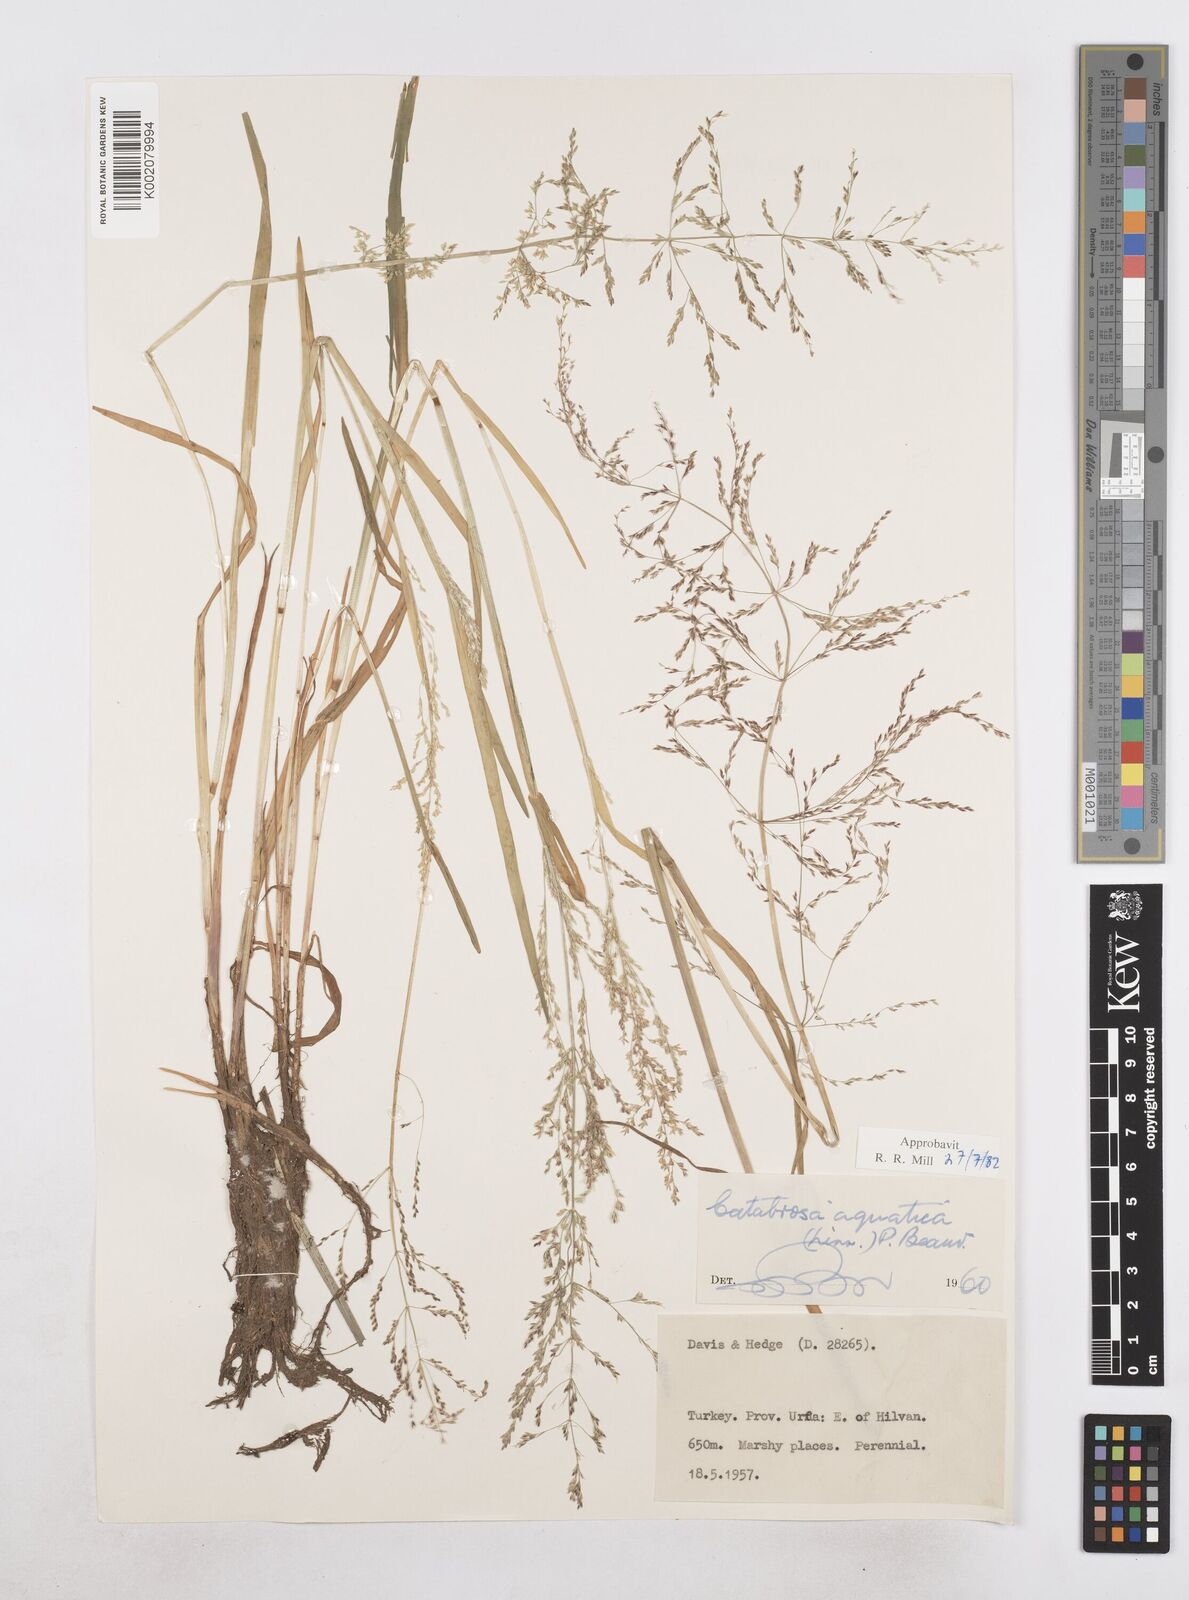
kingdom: Plantae
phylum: Tracheophyta
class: Liliopsida
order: Poales
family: Poaceae
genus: Catabrosa
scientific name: Catabrosa aquatica
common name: Whorl-grass
